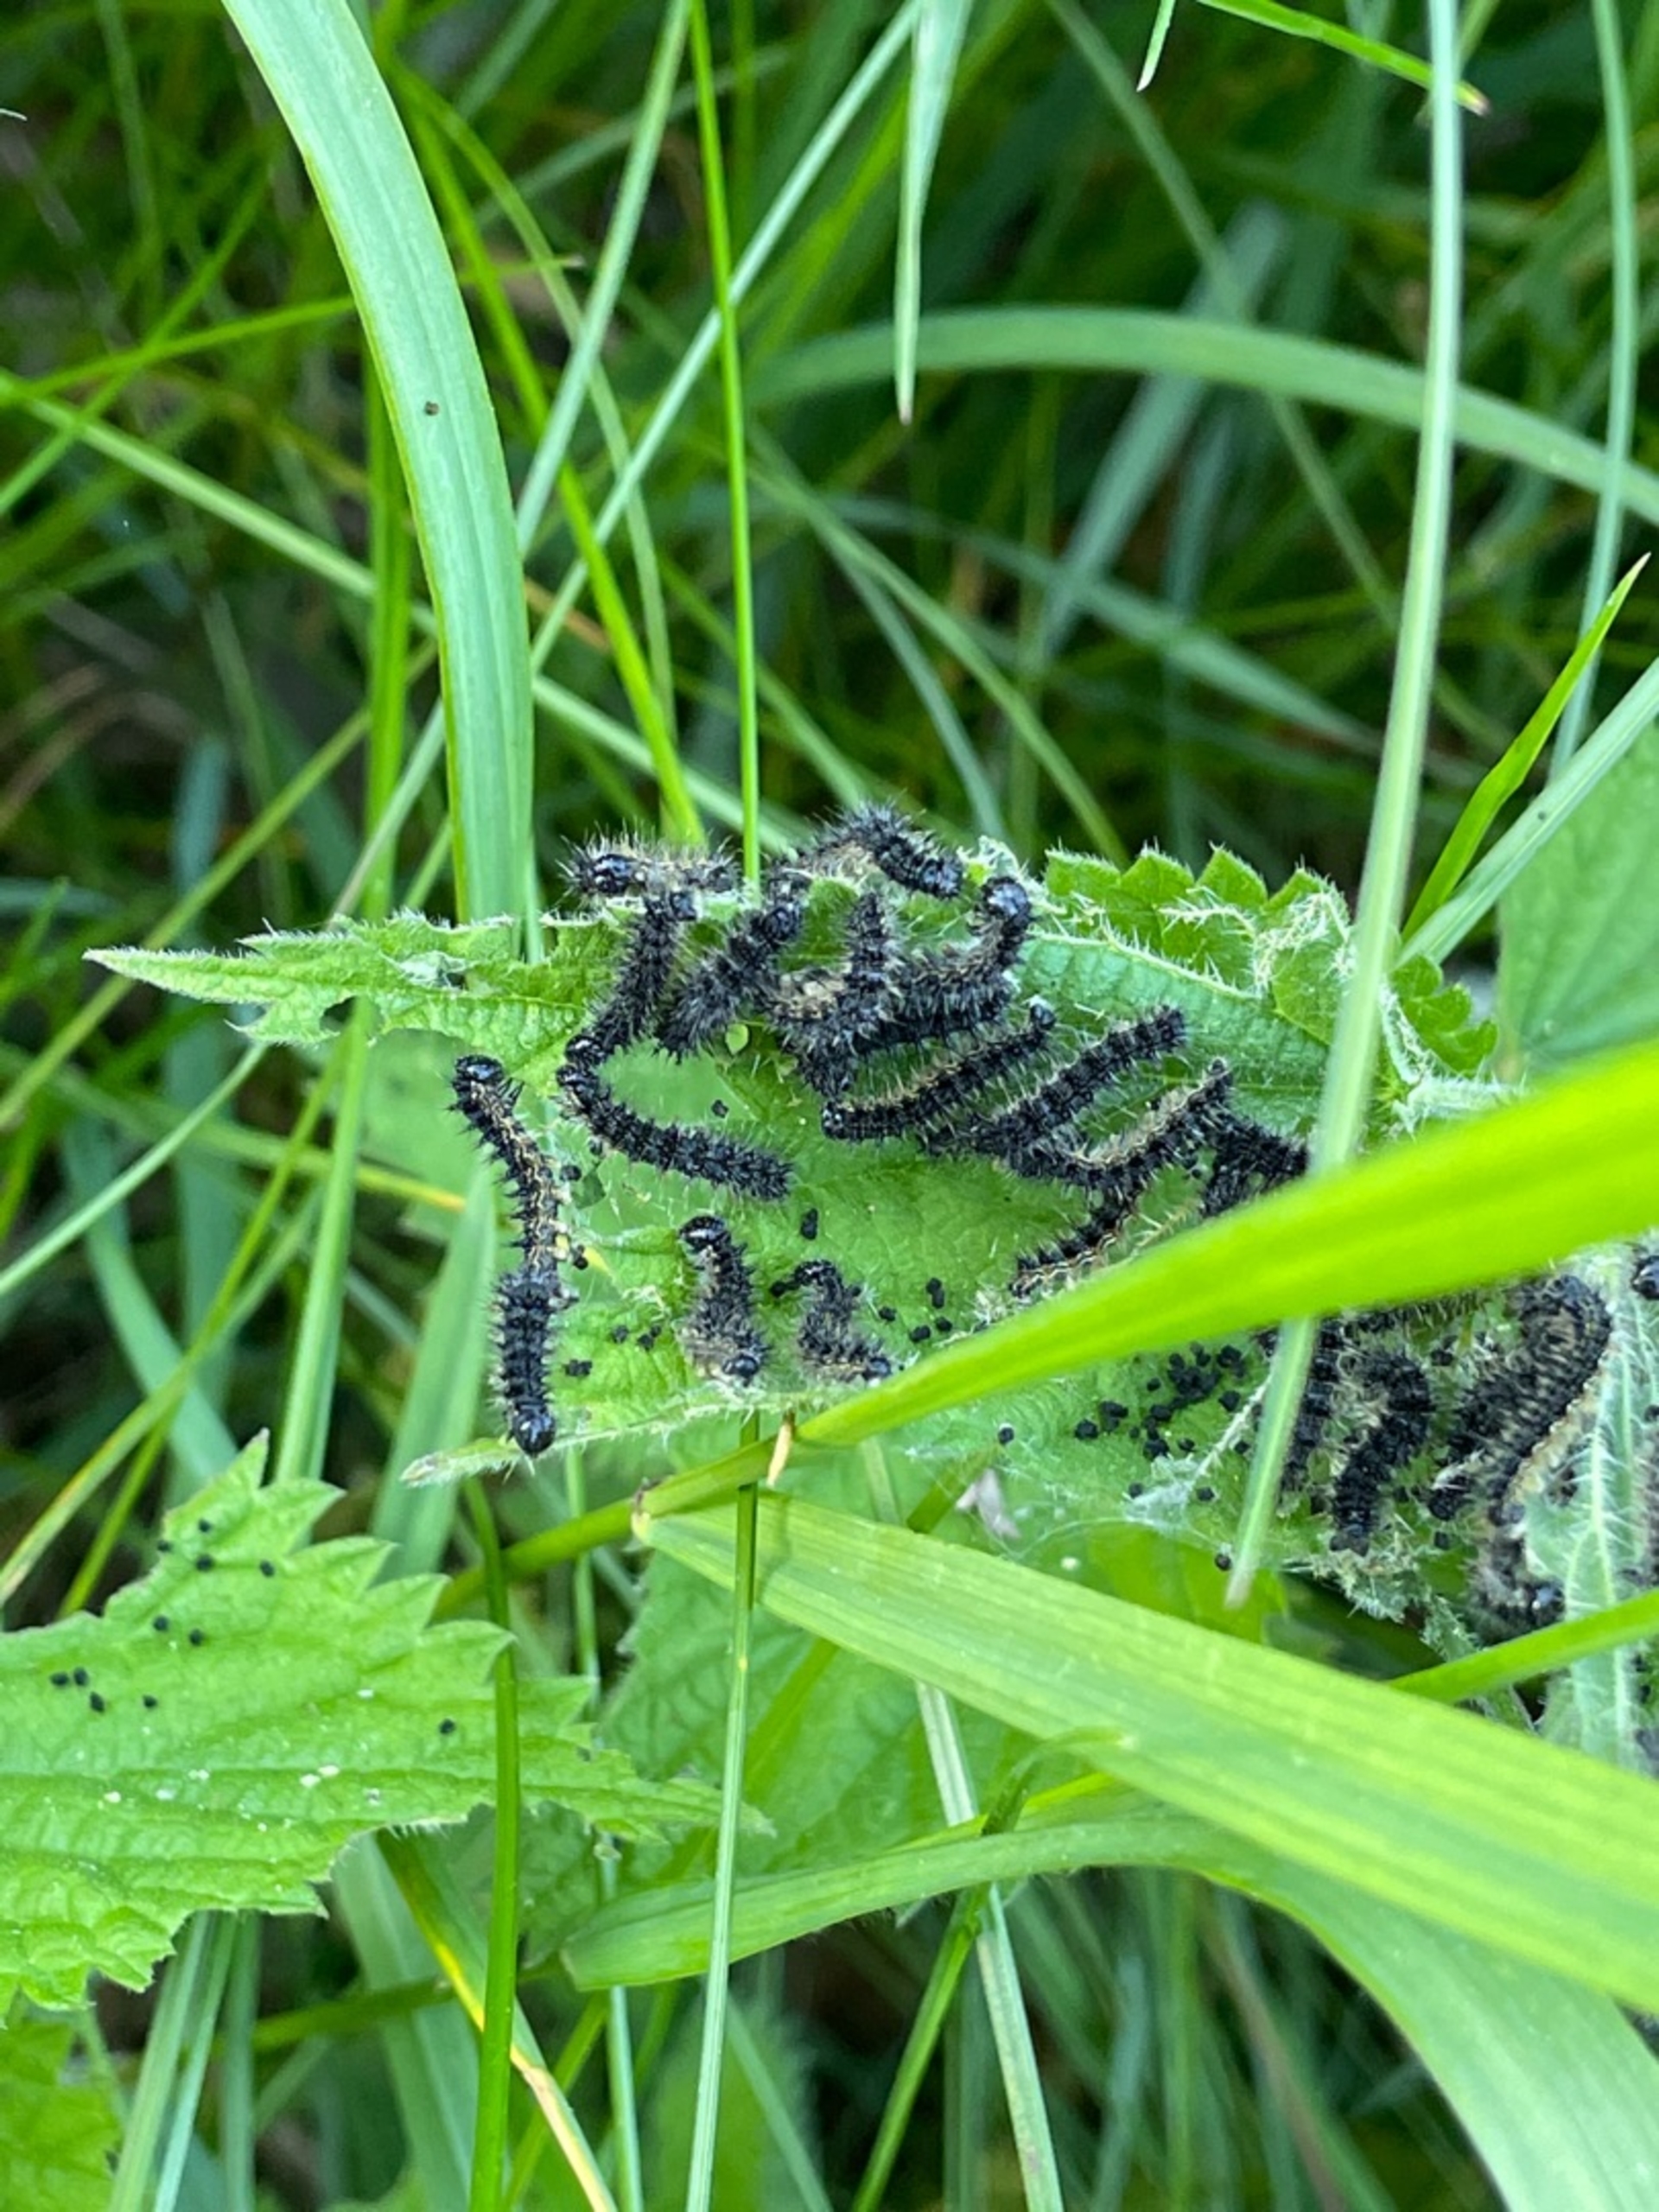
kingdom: Animalia
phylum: Arthropoda
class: Insecta
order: Lepidoptera
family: Nymphalidae
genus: Aglais
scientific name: Aglais urticae
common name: Nældens takvinge
